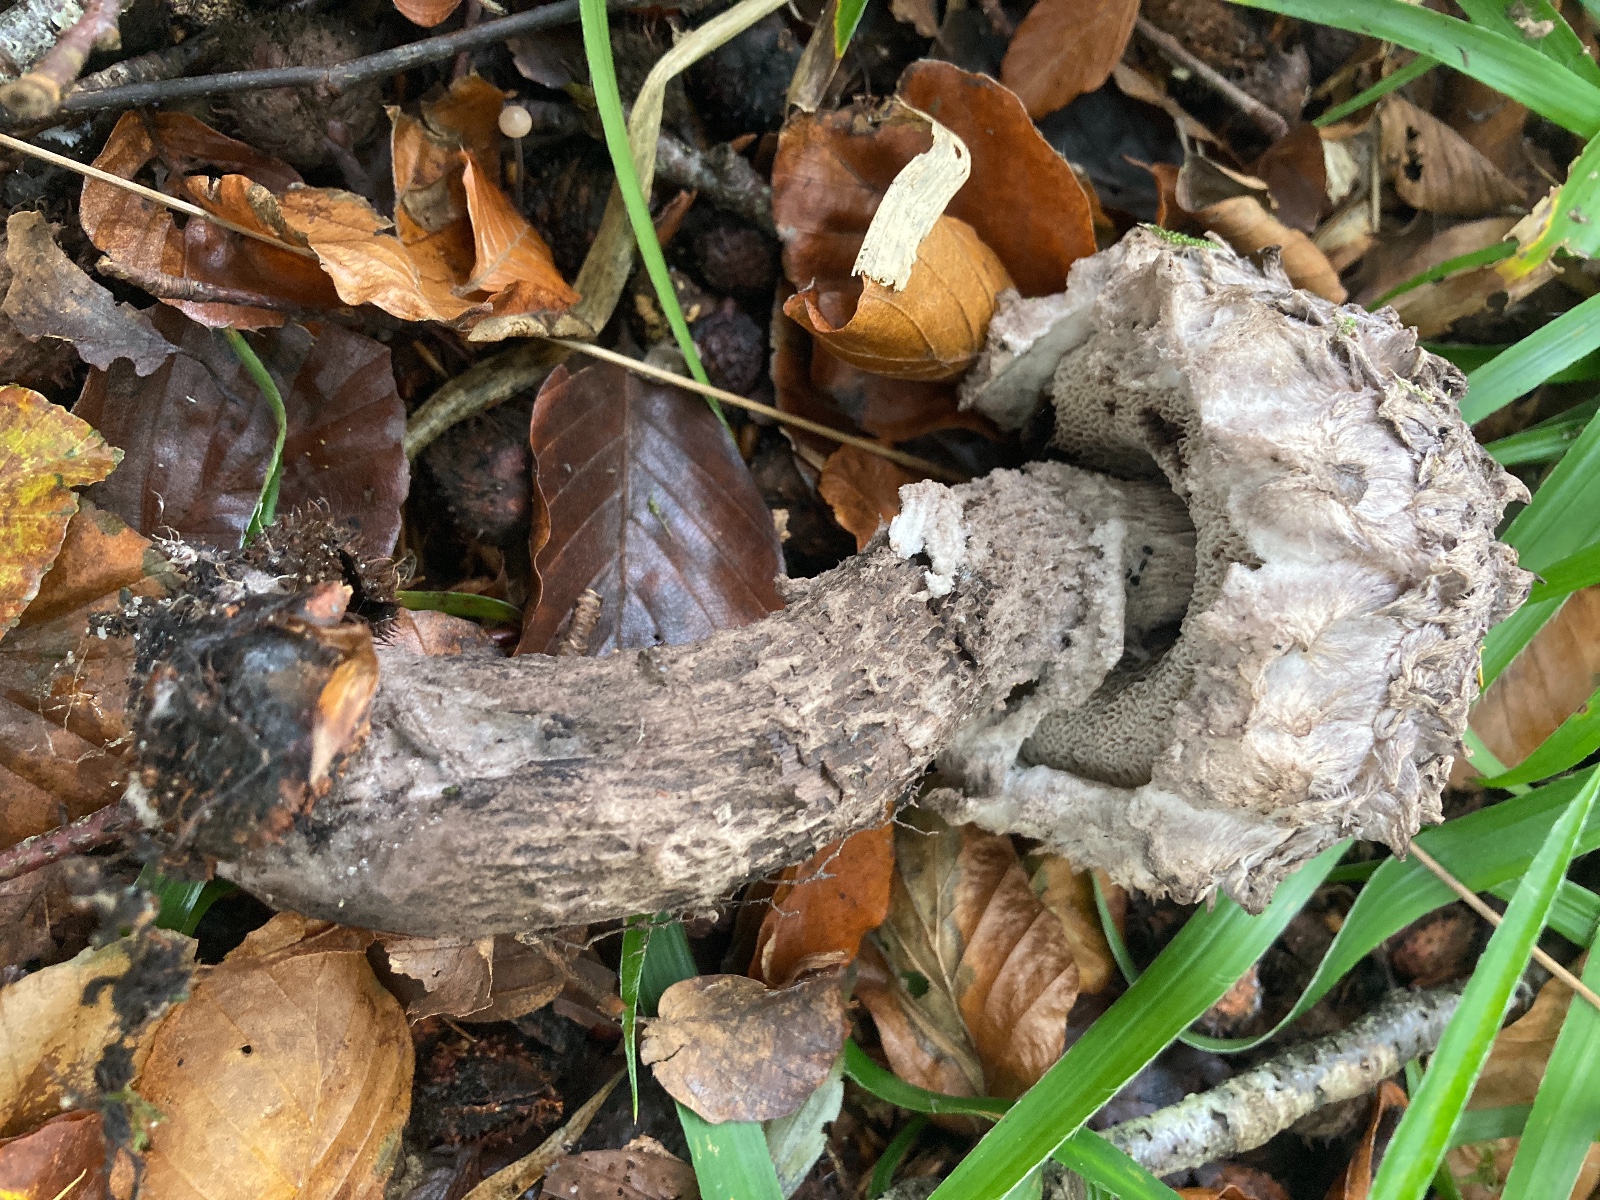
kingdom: Fungi
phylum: Basidiomycota
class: Agaricomycetes
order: Boletales
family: Boletaceae
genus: Strobilomyces
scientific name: Strobilomyces strobilaceus
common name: koglerørhat
